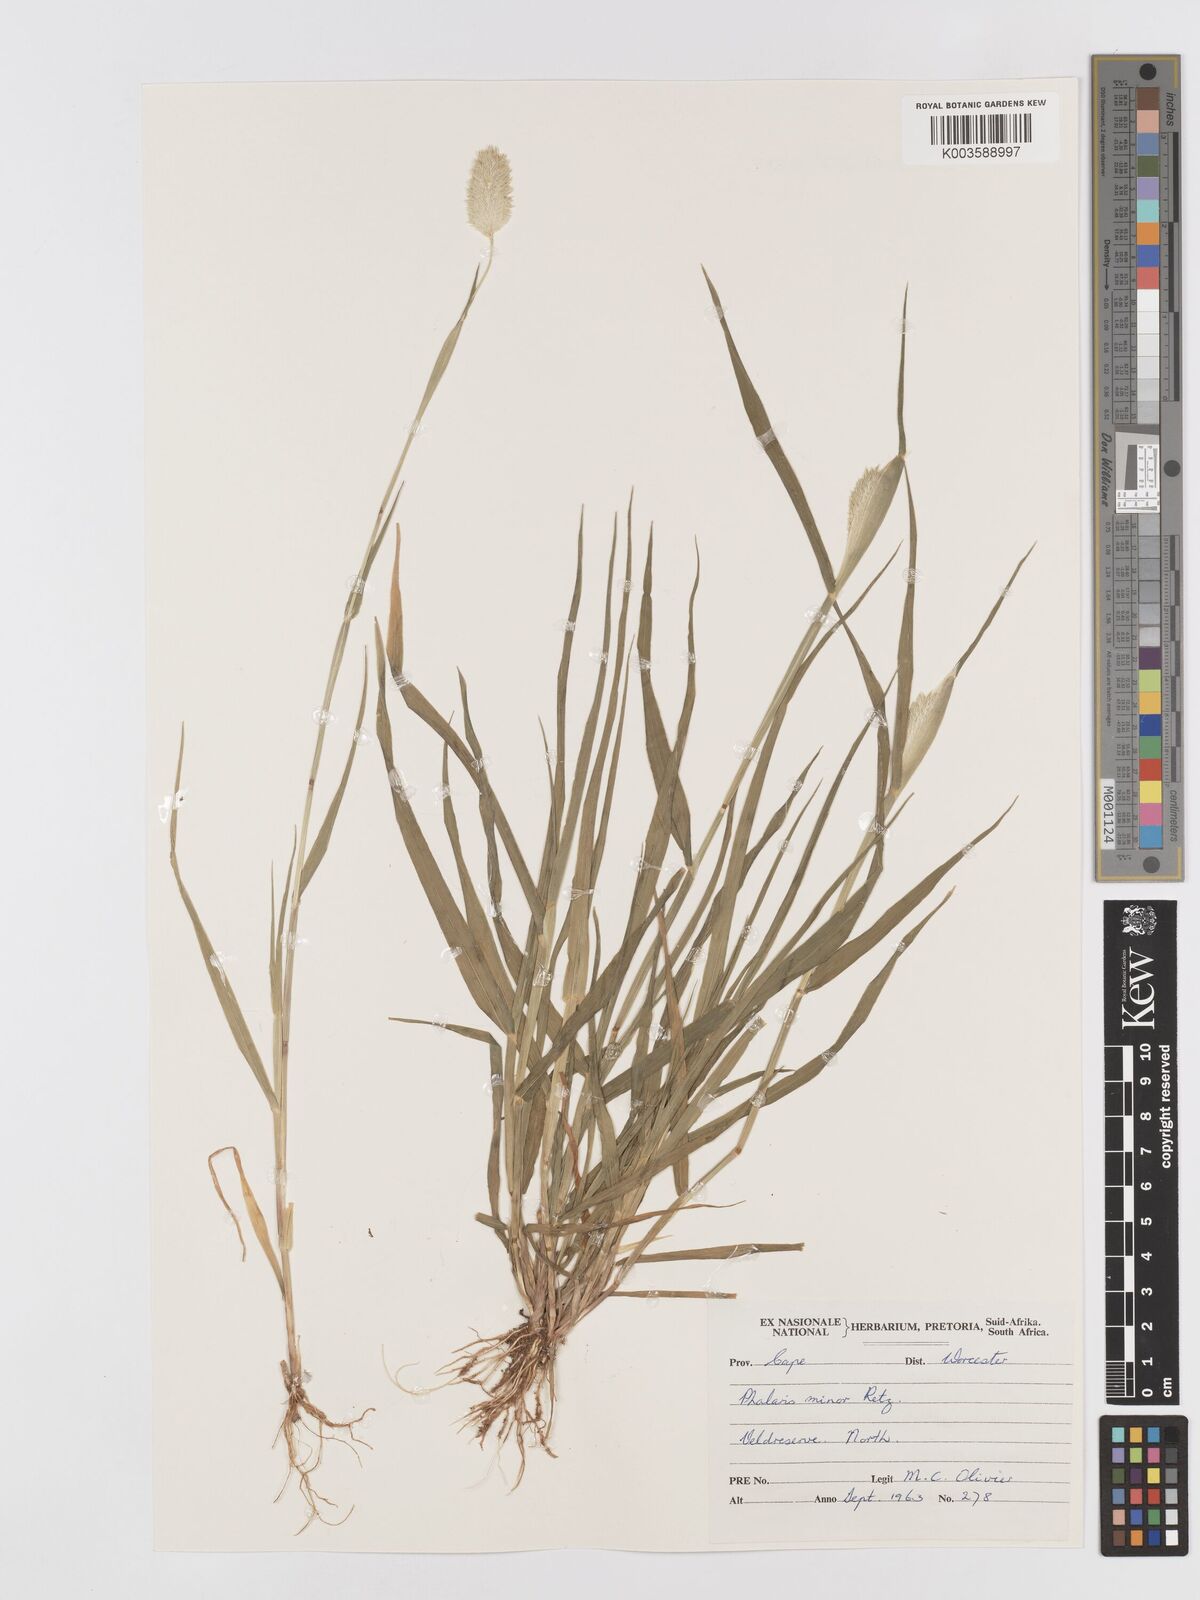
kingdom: Plantae
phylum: Tracheophyta
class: Liliopsida
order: Poales
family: Poaceae
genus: Phalaris
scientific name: Phalaris minor
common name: Littleseed canarygrass
